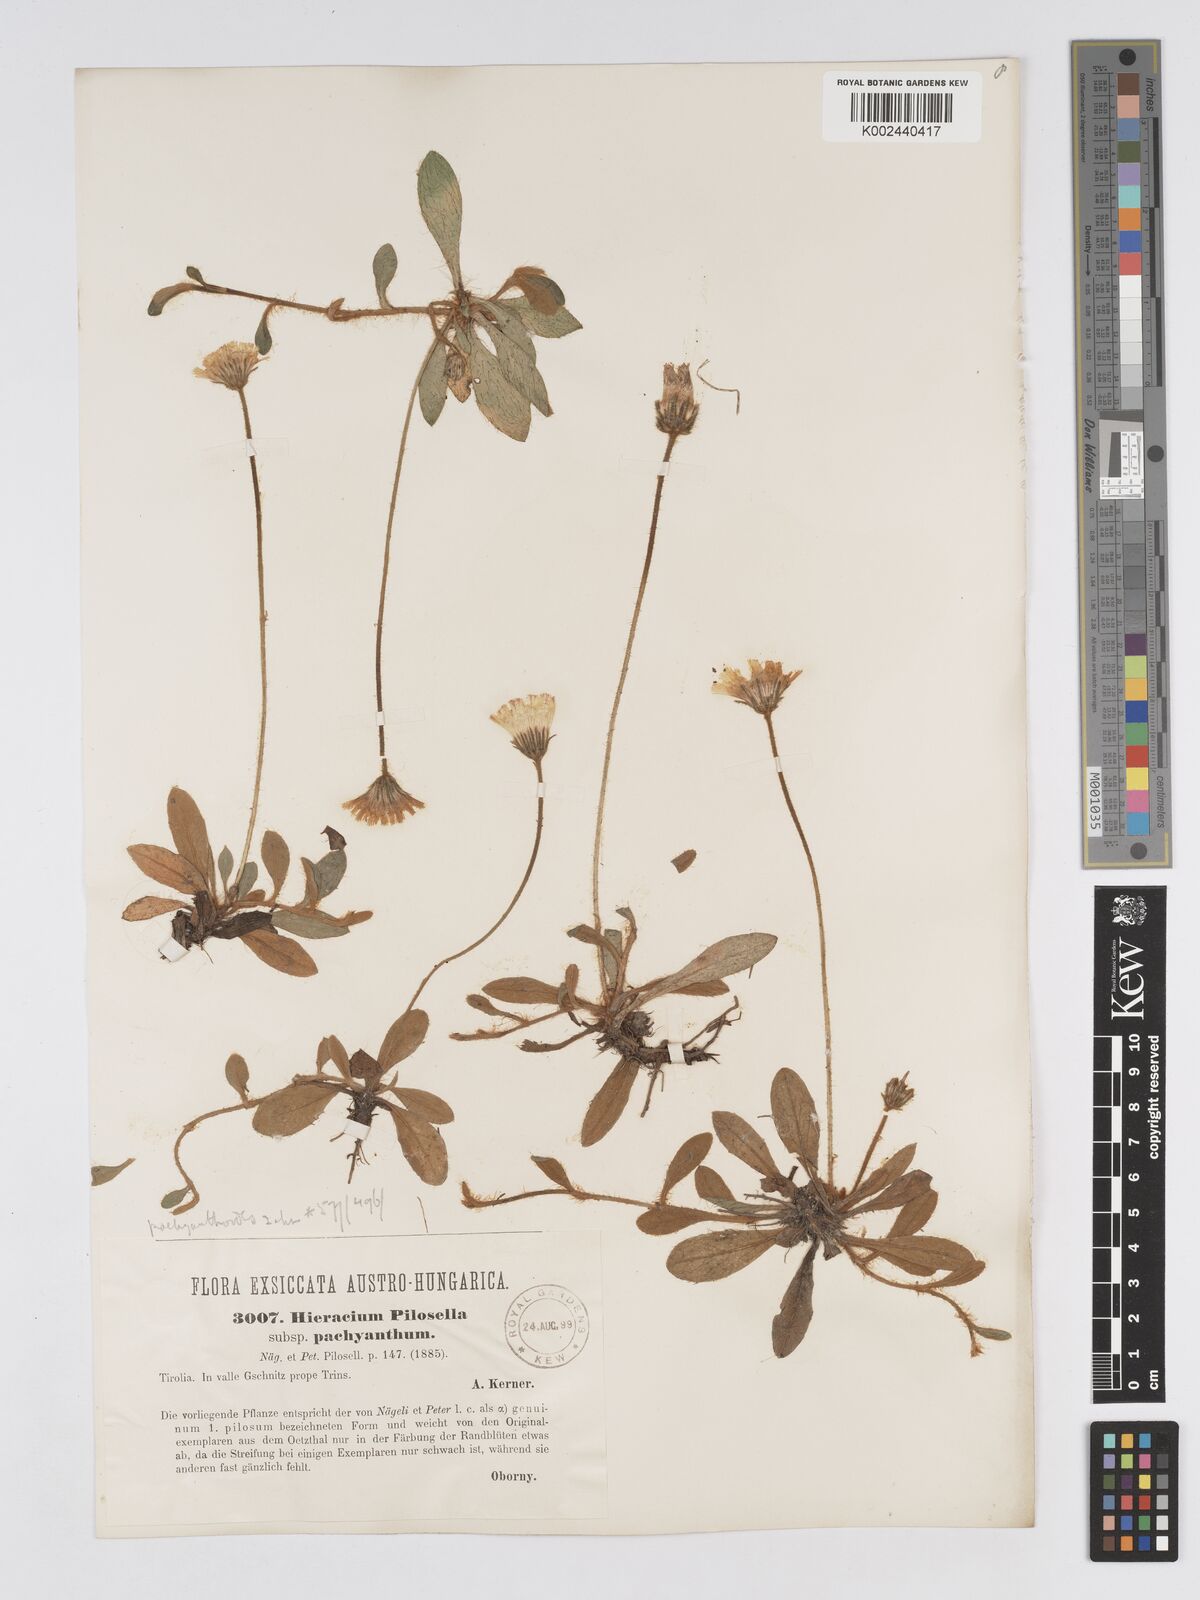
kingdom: Plantae
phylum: Tracheophyta
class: Magnoliopsida
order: Asterales
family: Asteraceae
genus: Pilosella
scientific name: Pilosella officinarum
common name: Mouse-ear hawkweed
